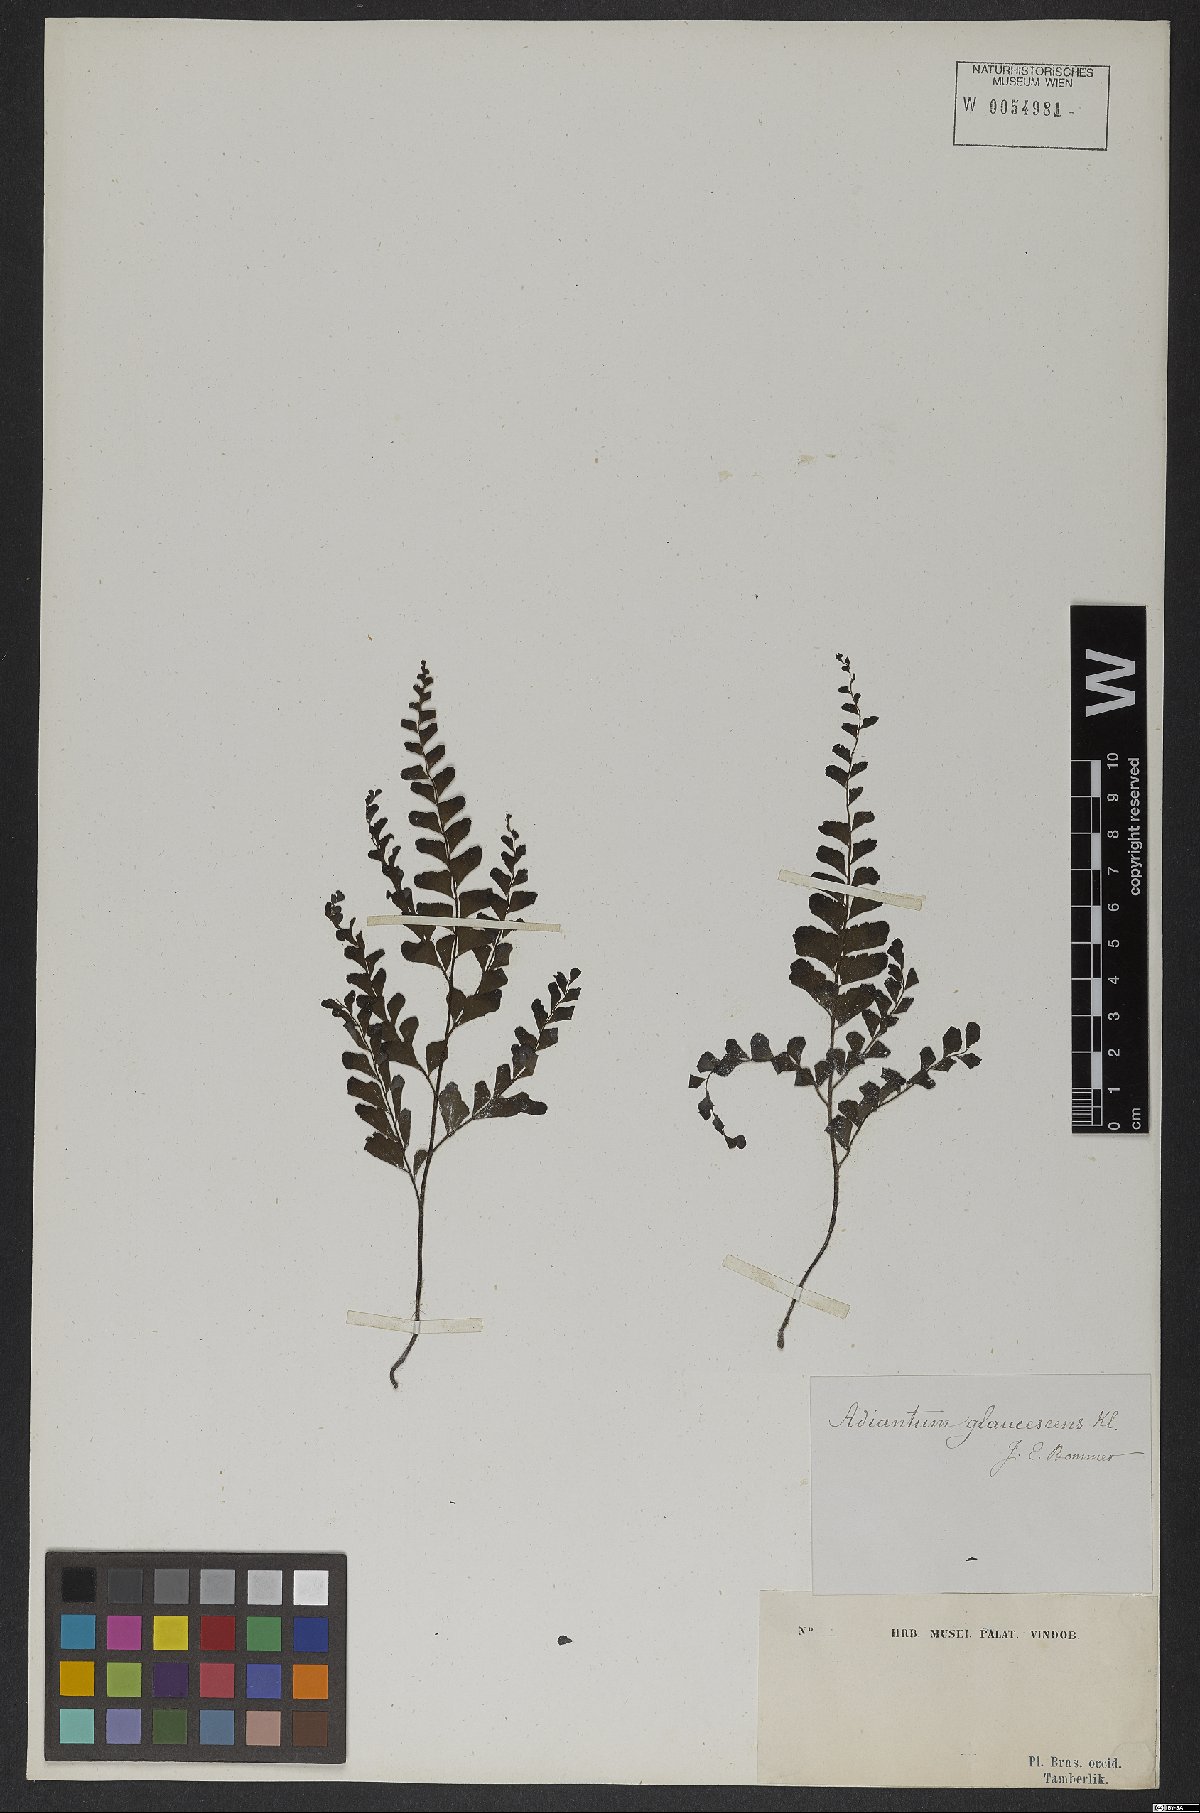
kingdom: Plantae
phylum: Tracheophyta
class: Polypodiopsida
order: Polypodiales
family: Pteridaceae
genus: Adiantum
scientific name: Adiantum glaucescens
